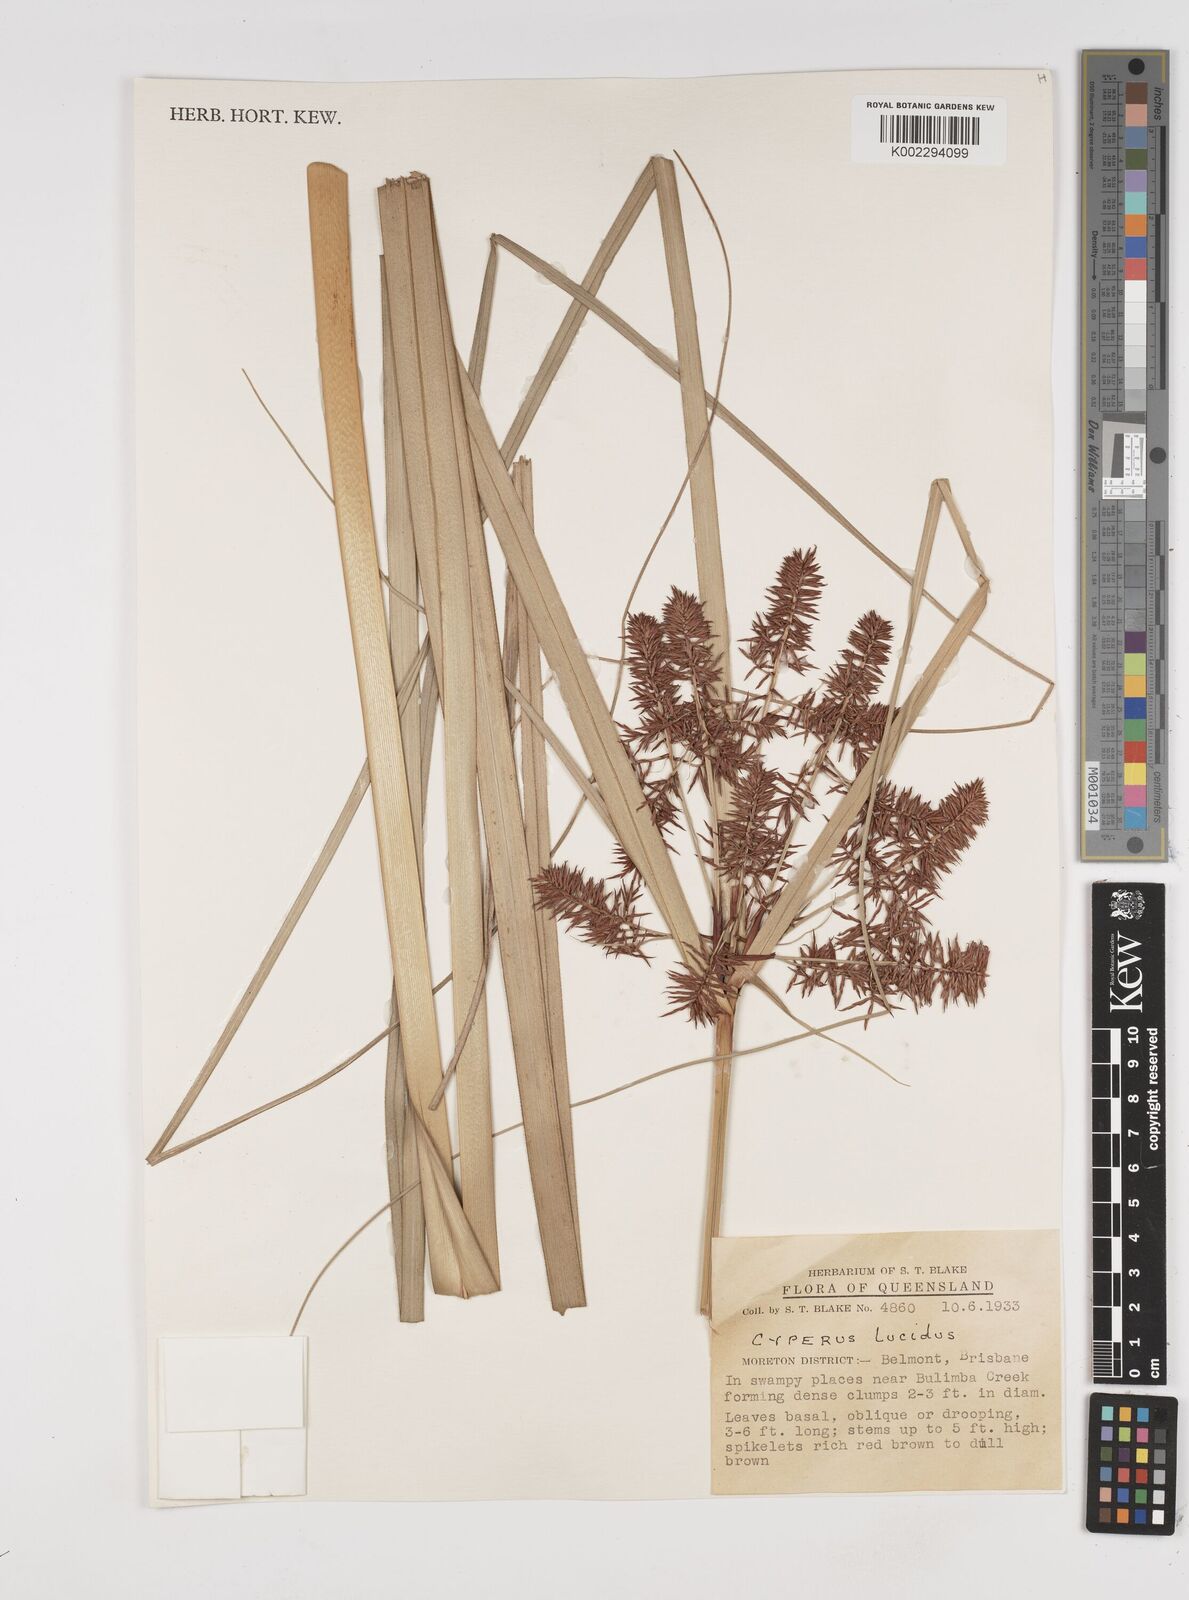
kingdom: Plantae
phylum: Tracheophyta
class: Liliopsida
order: Poales
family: Cyperaceae
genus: Cyperus
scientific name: Cyperus lucidus
